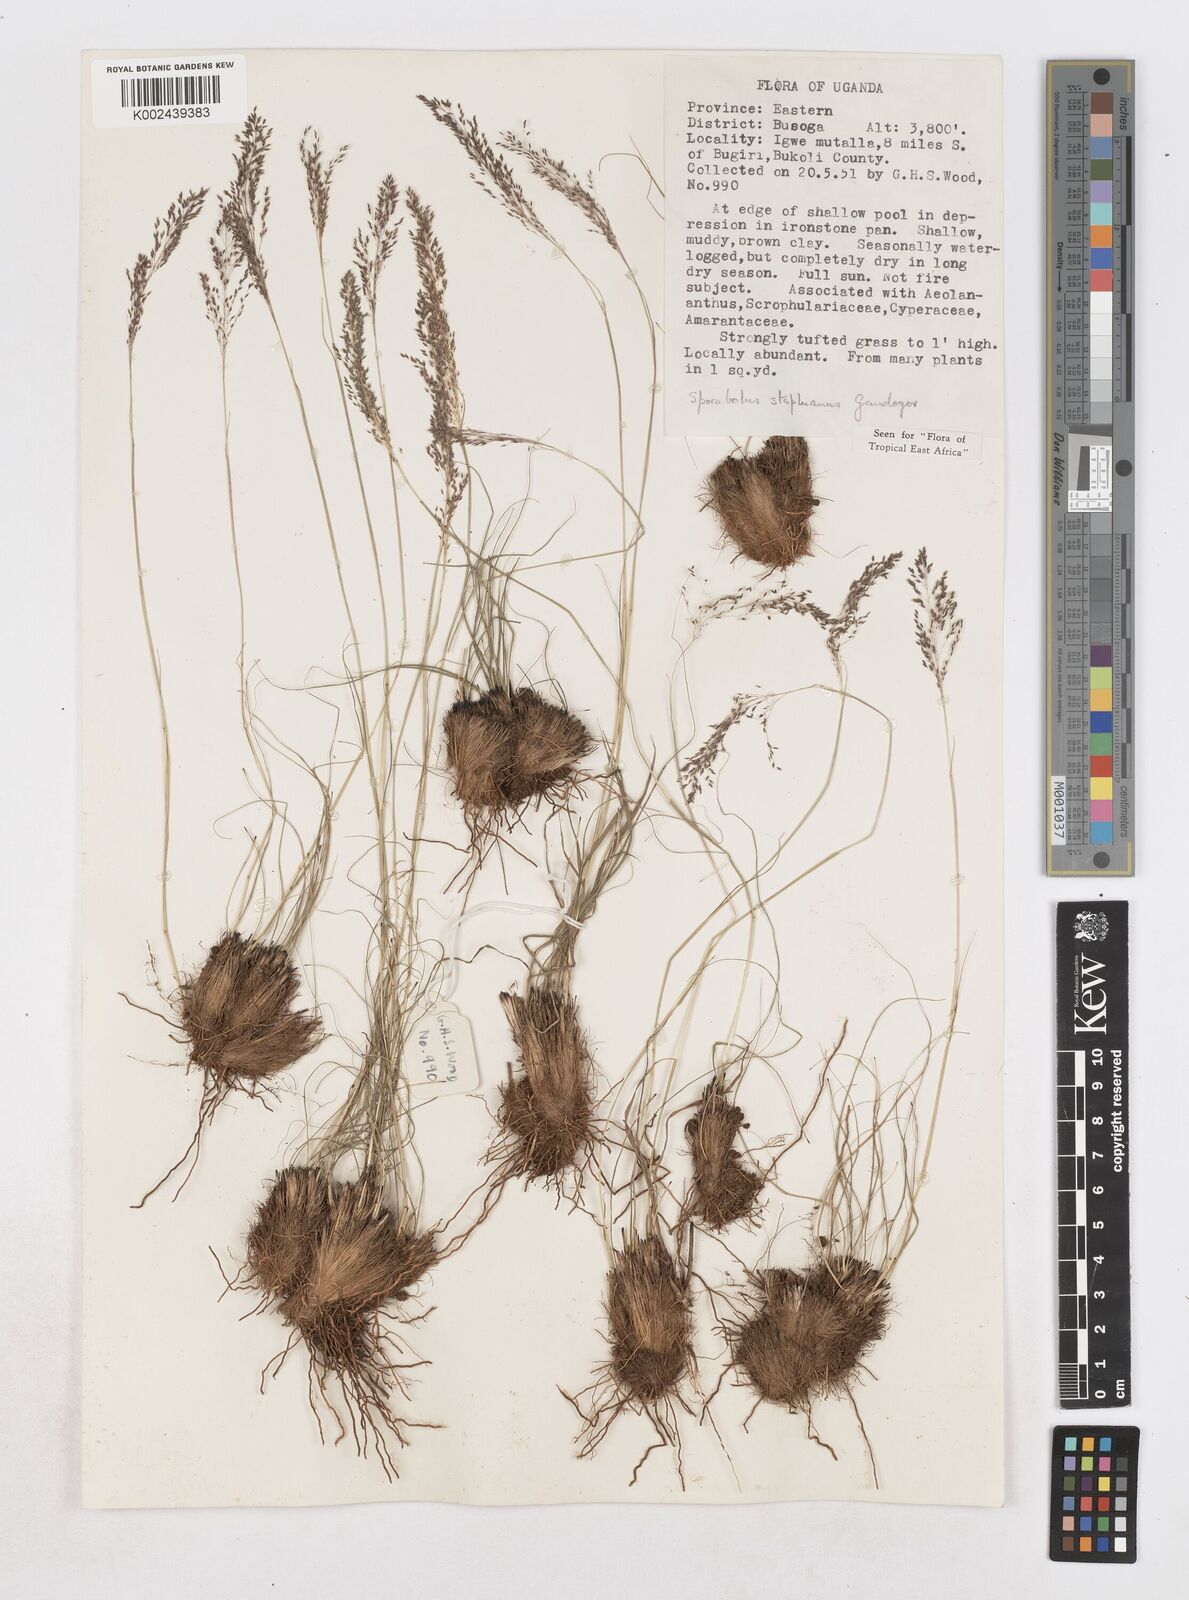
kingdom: Plantae
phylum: Tracheophyta
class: Liliopsida
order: Poales
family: Poaceae
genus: Sporobolus
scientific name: Sporobolus stapfianus
